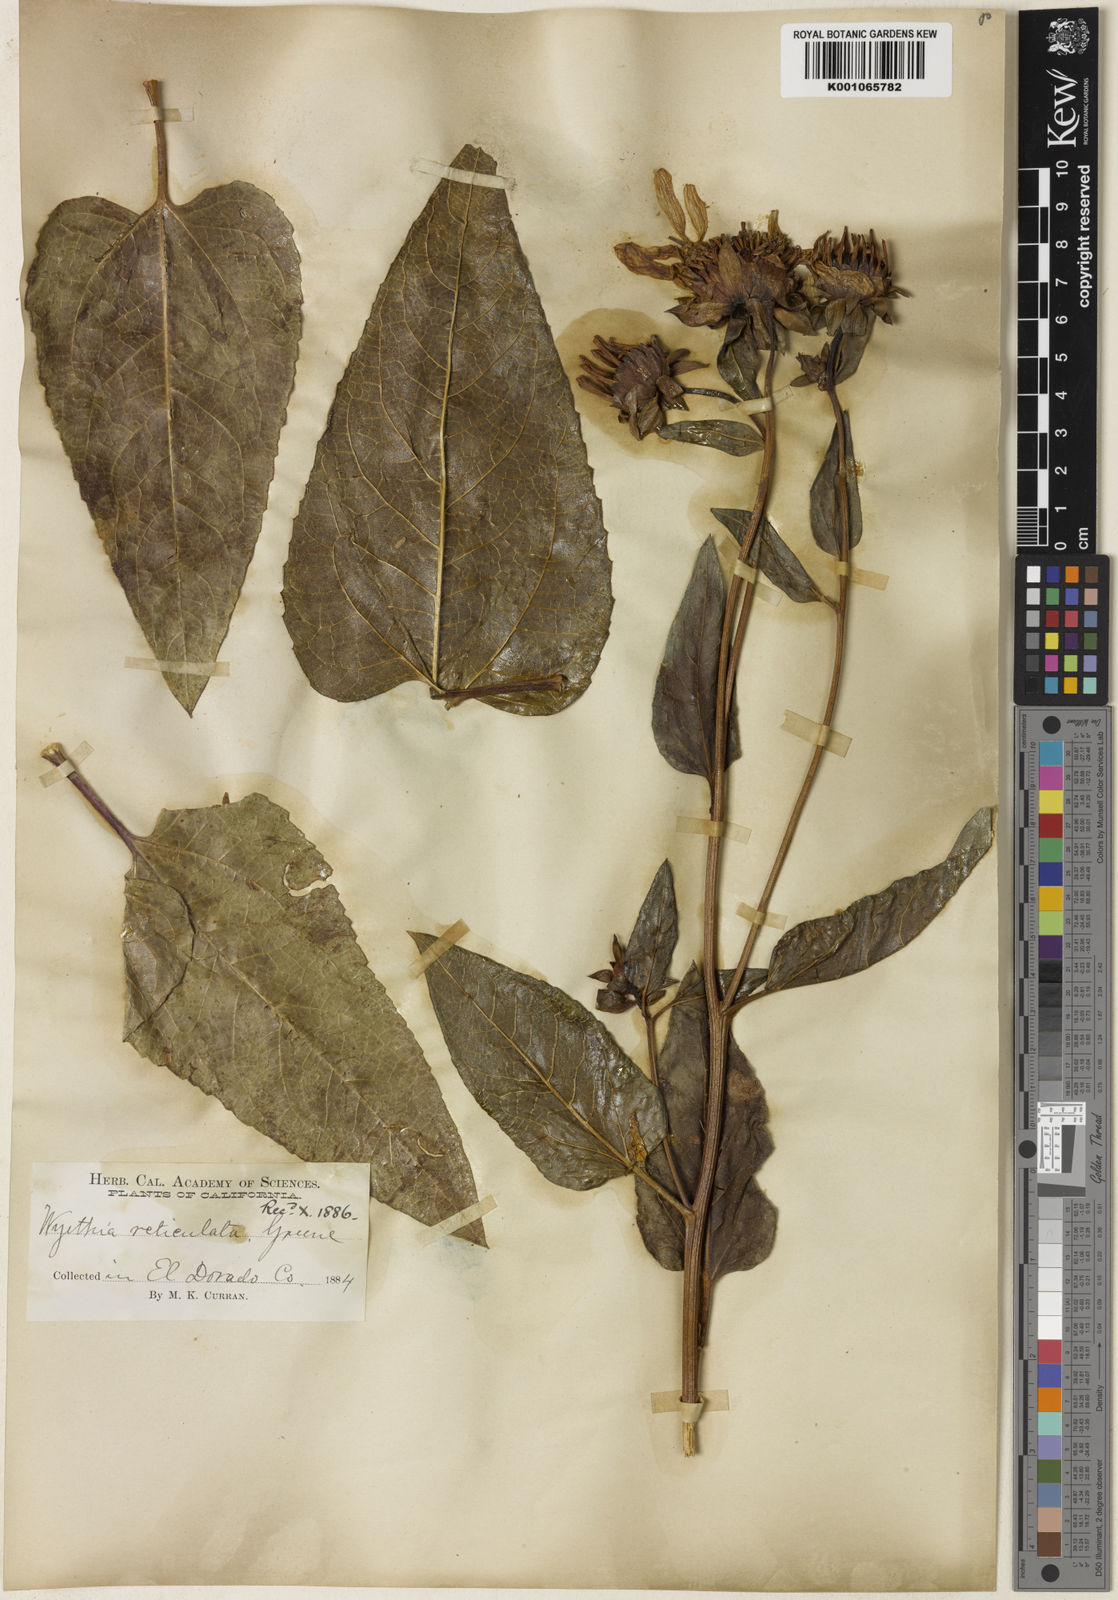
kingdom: Plantae
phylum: Tracheophyta
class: Magnoliopsida
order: Asterales
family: Asteraceae
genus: Agnorhiza
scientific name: Agnorhiza reticulata
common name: El dorado county mule's-ears
